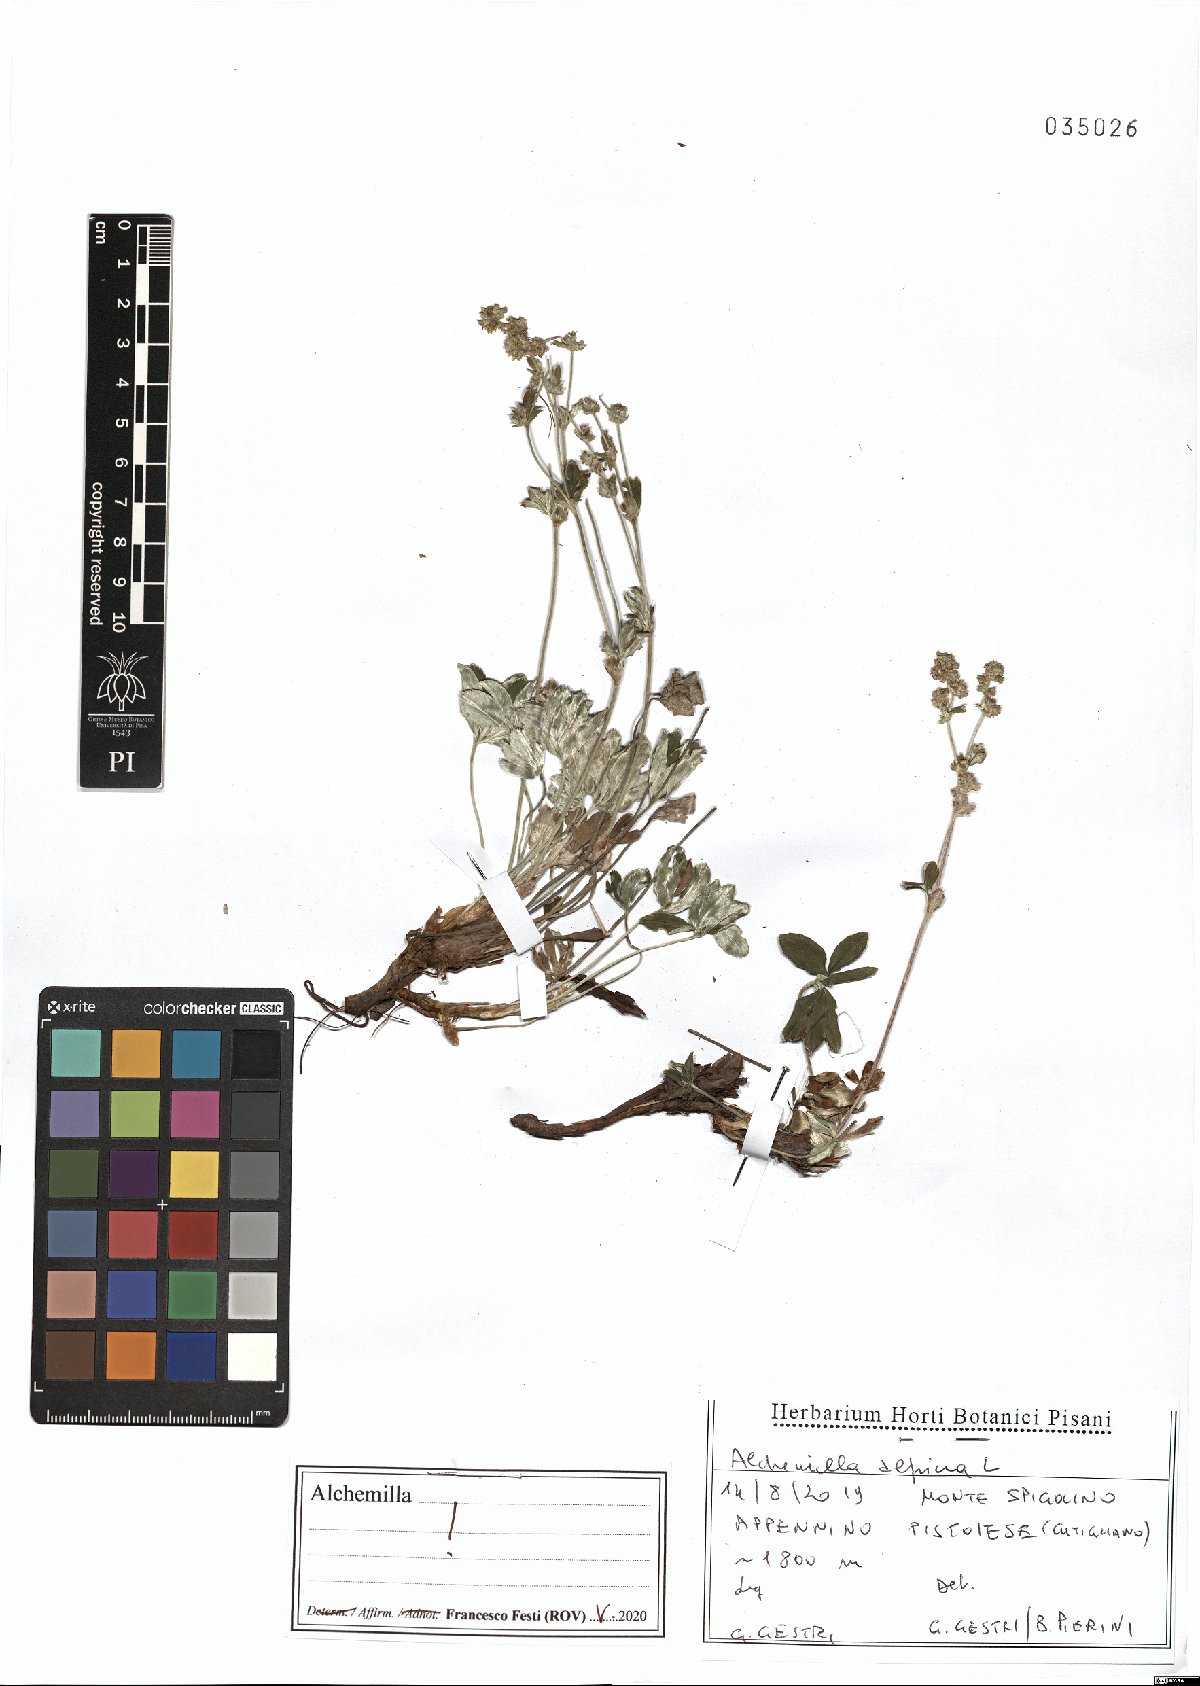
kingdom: Plantae
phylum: Tracheophyta
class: Magnoliopsida
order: Rosales
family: Rosaceae
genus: Alchemilla
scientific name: Alchemilla alpina
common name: Alpine lady's-mantle
